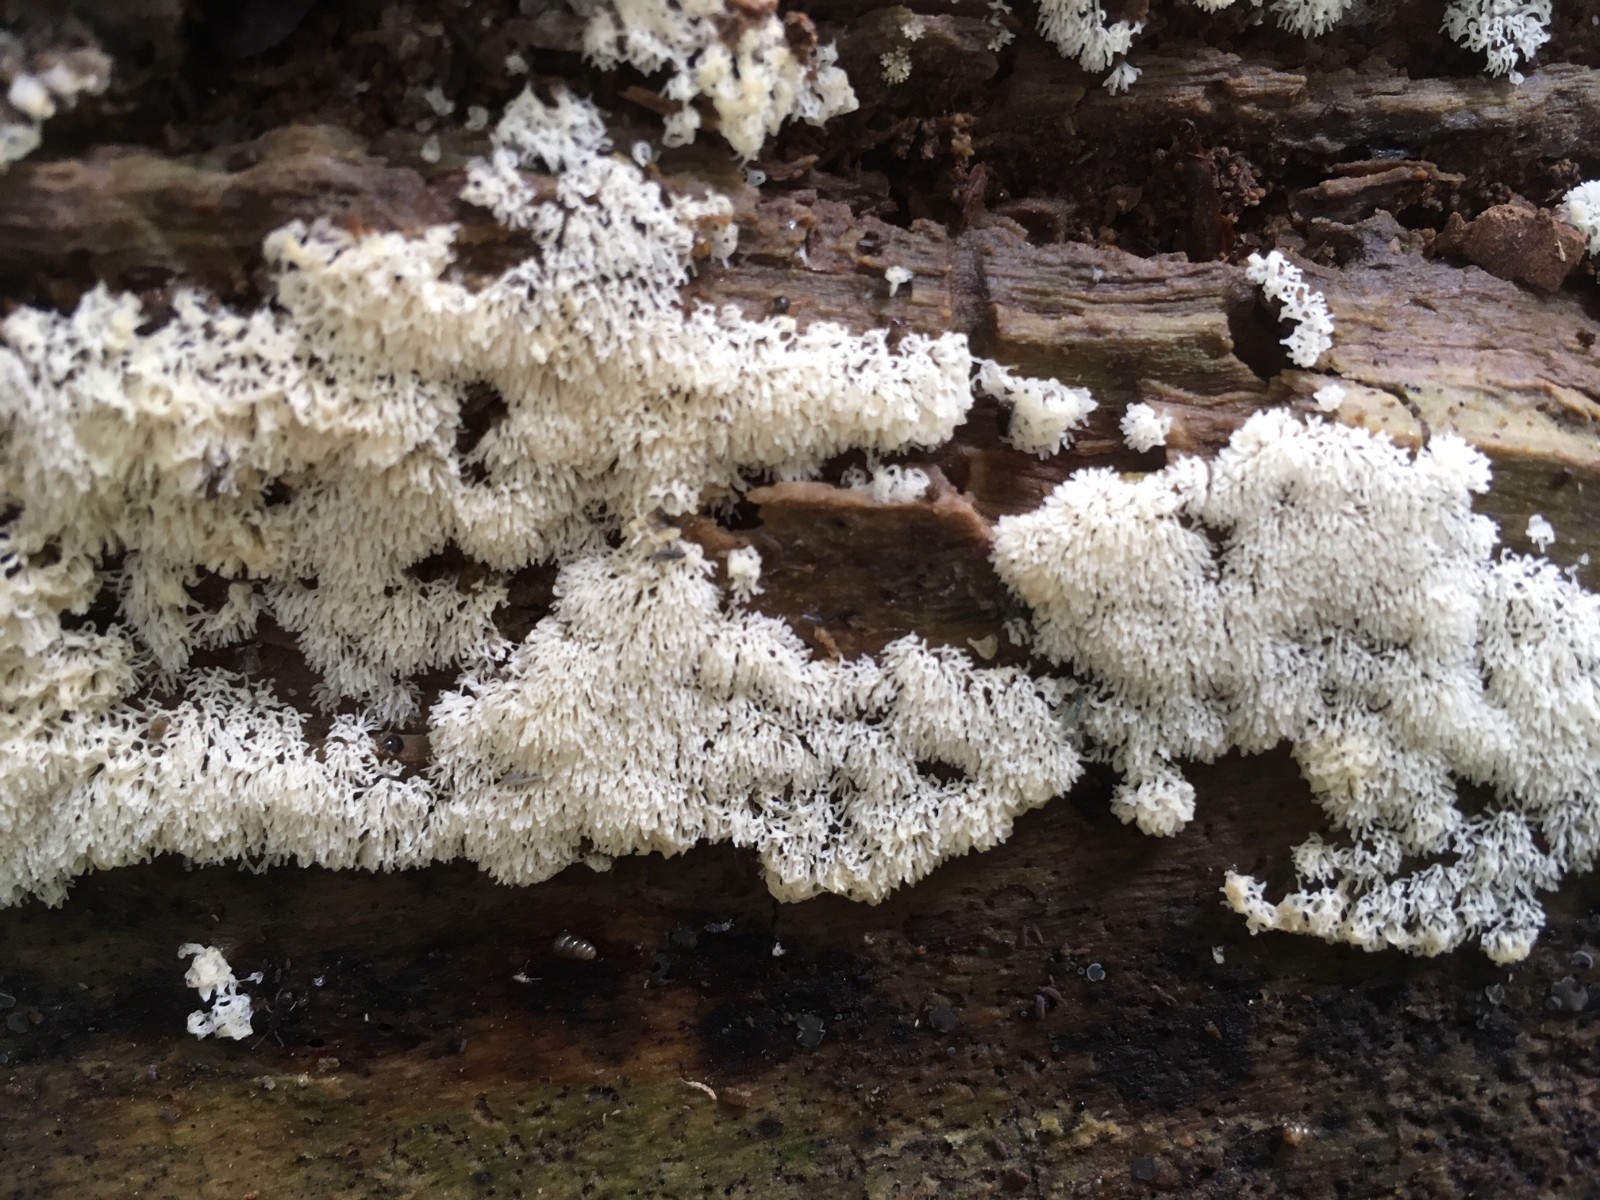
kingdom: Protozoa
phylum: Mycetozoa
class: Protosteliomycetes
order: Ceratiomyxales
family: Ceratiomyxaceae
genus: Ceratiomyxa
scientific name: Ceratiomyxa fruticulosa
